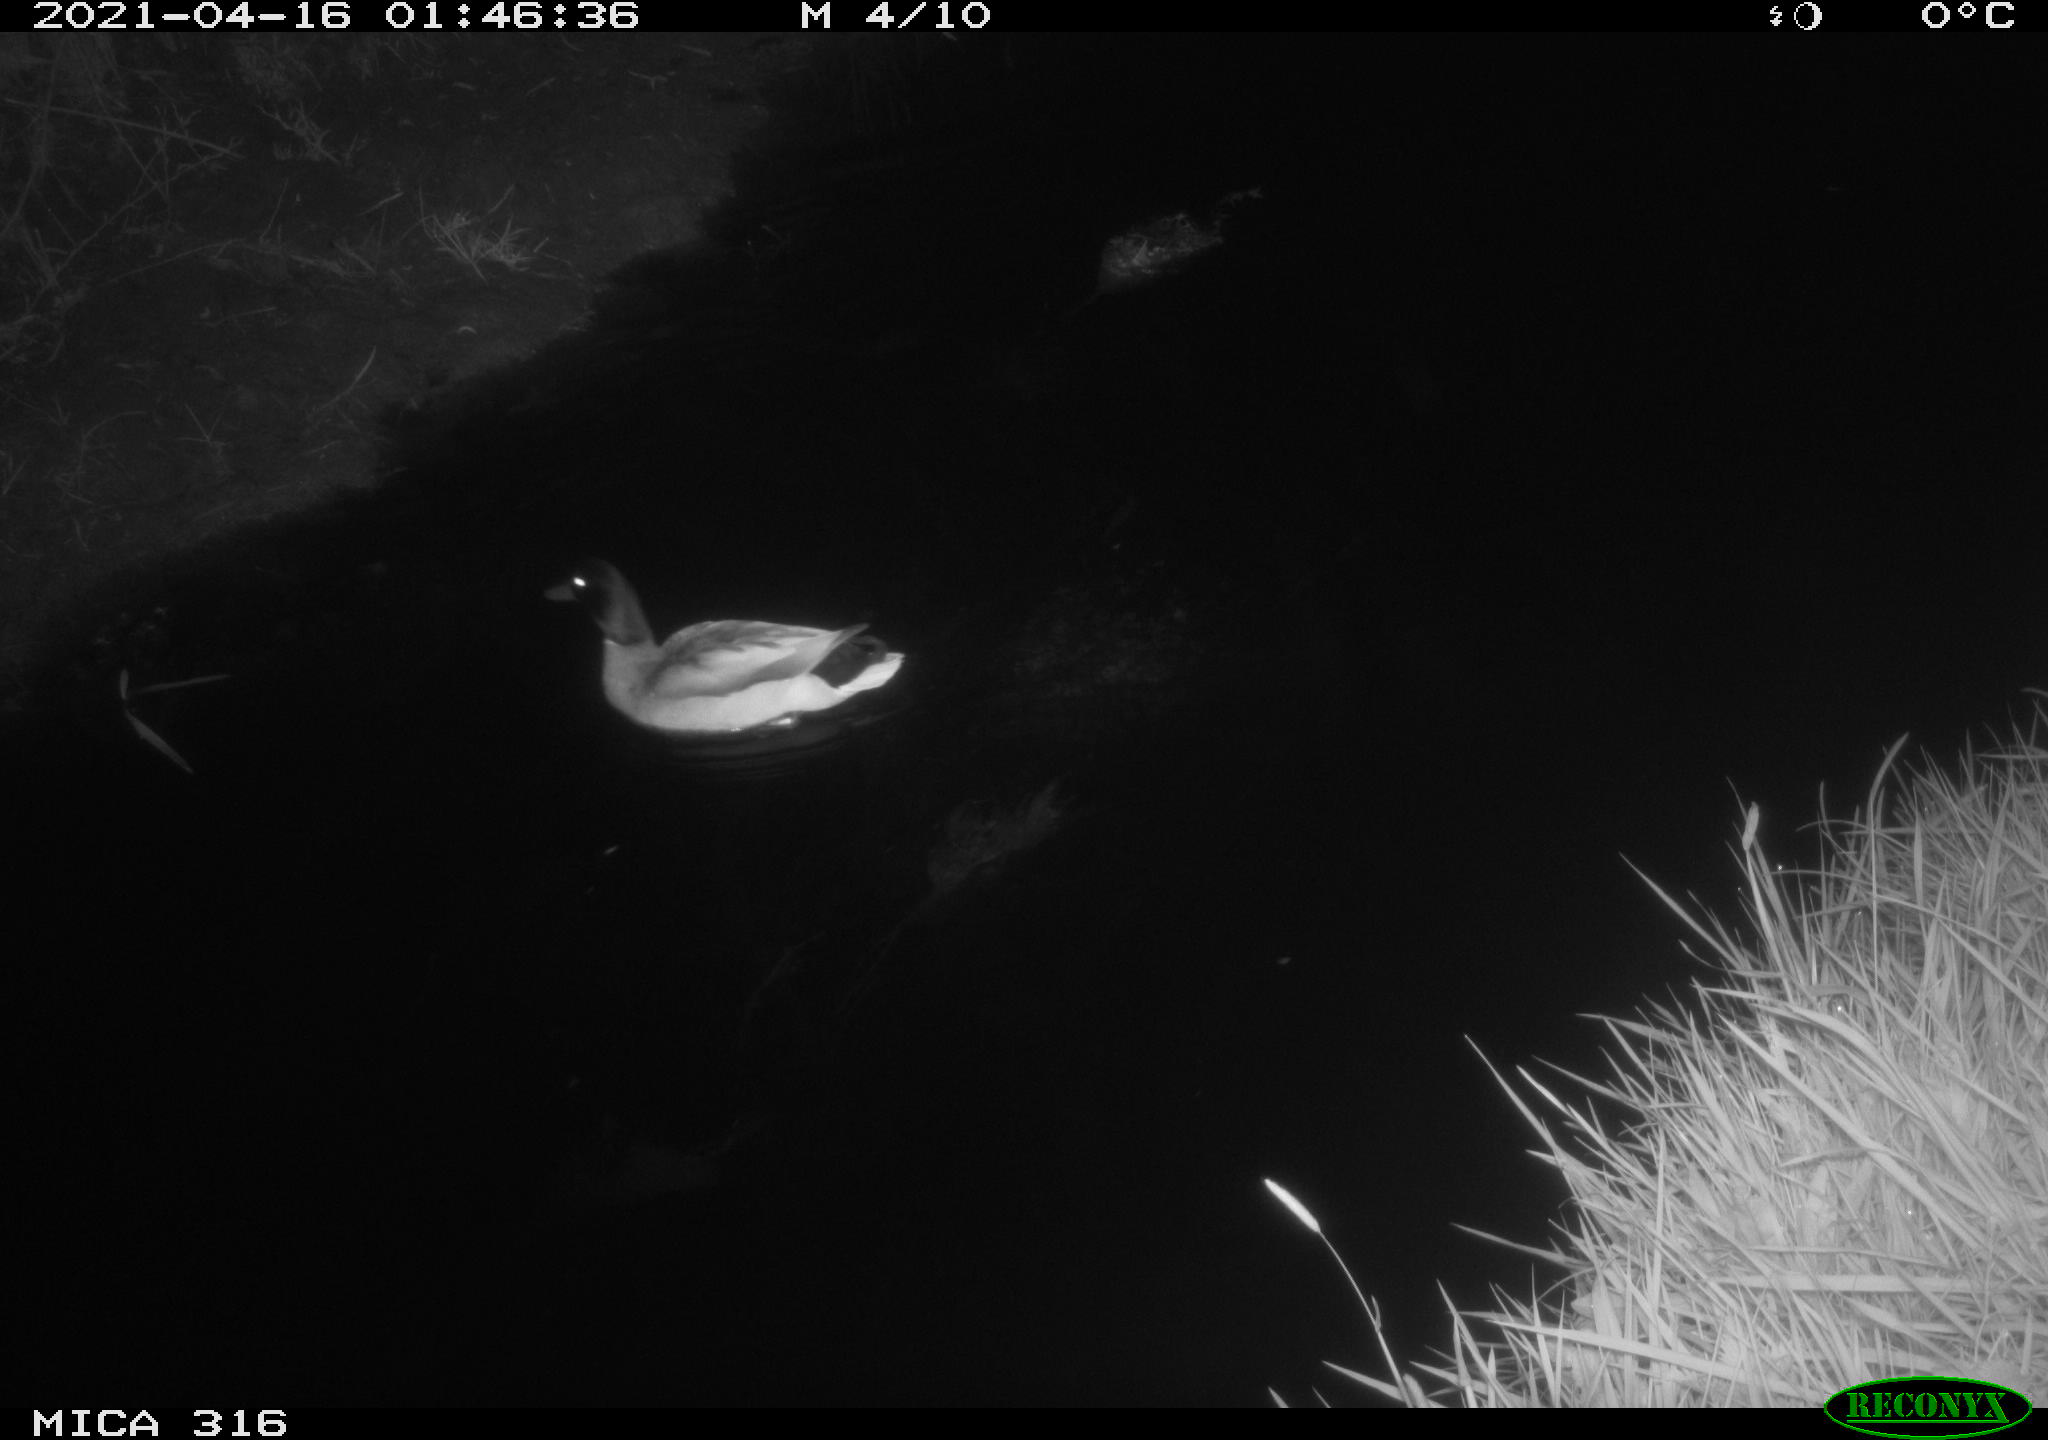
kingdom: Animalia
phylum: Chordata
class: Aves
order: Anseriformes
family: Anatidae
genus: Anas
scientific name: Anas platyrhynchos
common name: Mallard
